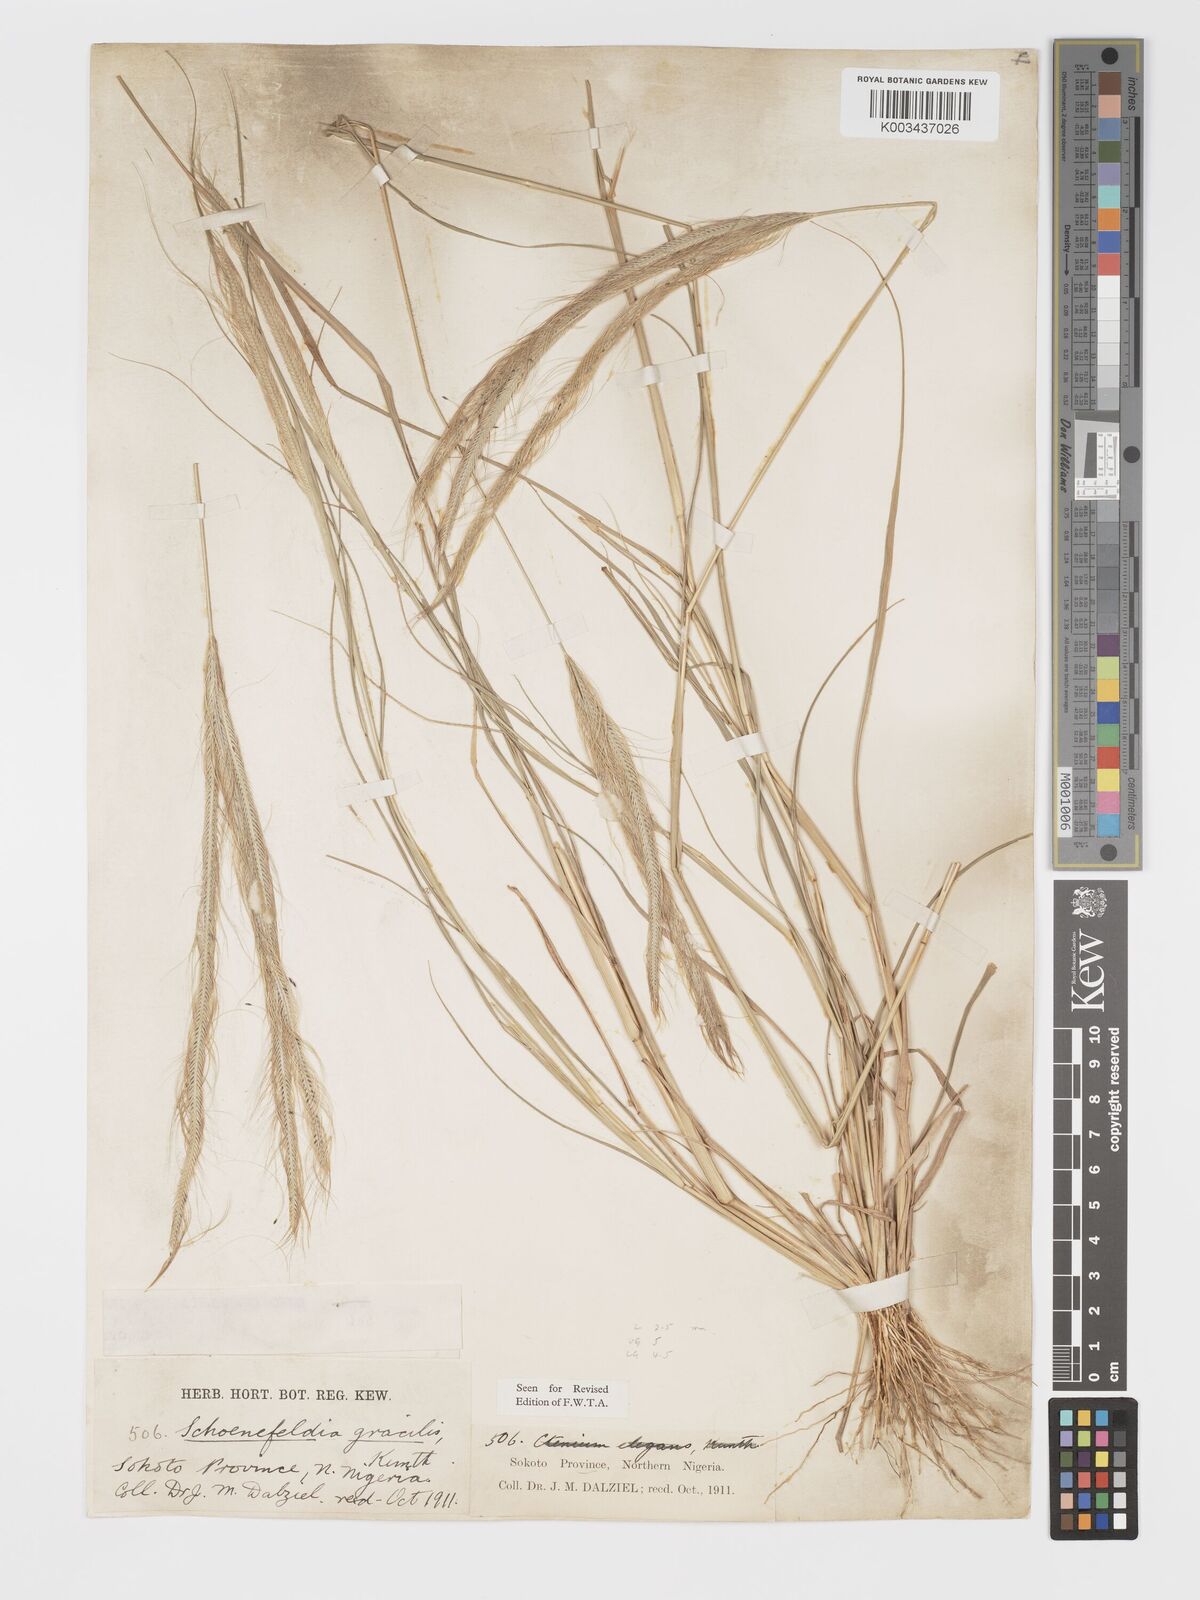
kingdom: Plantae
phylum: Tracheophyta
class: Liliopsida
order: Poales
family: Poaceae
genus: Schoenefeldia
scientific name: Schoenefeldia gracilis
